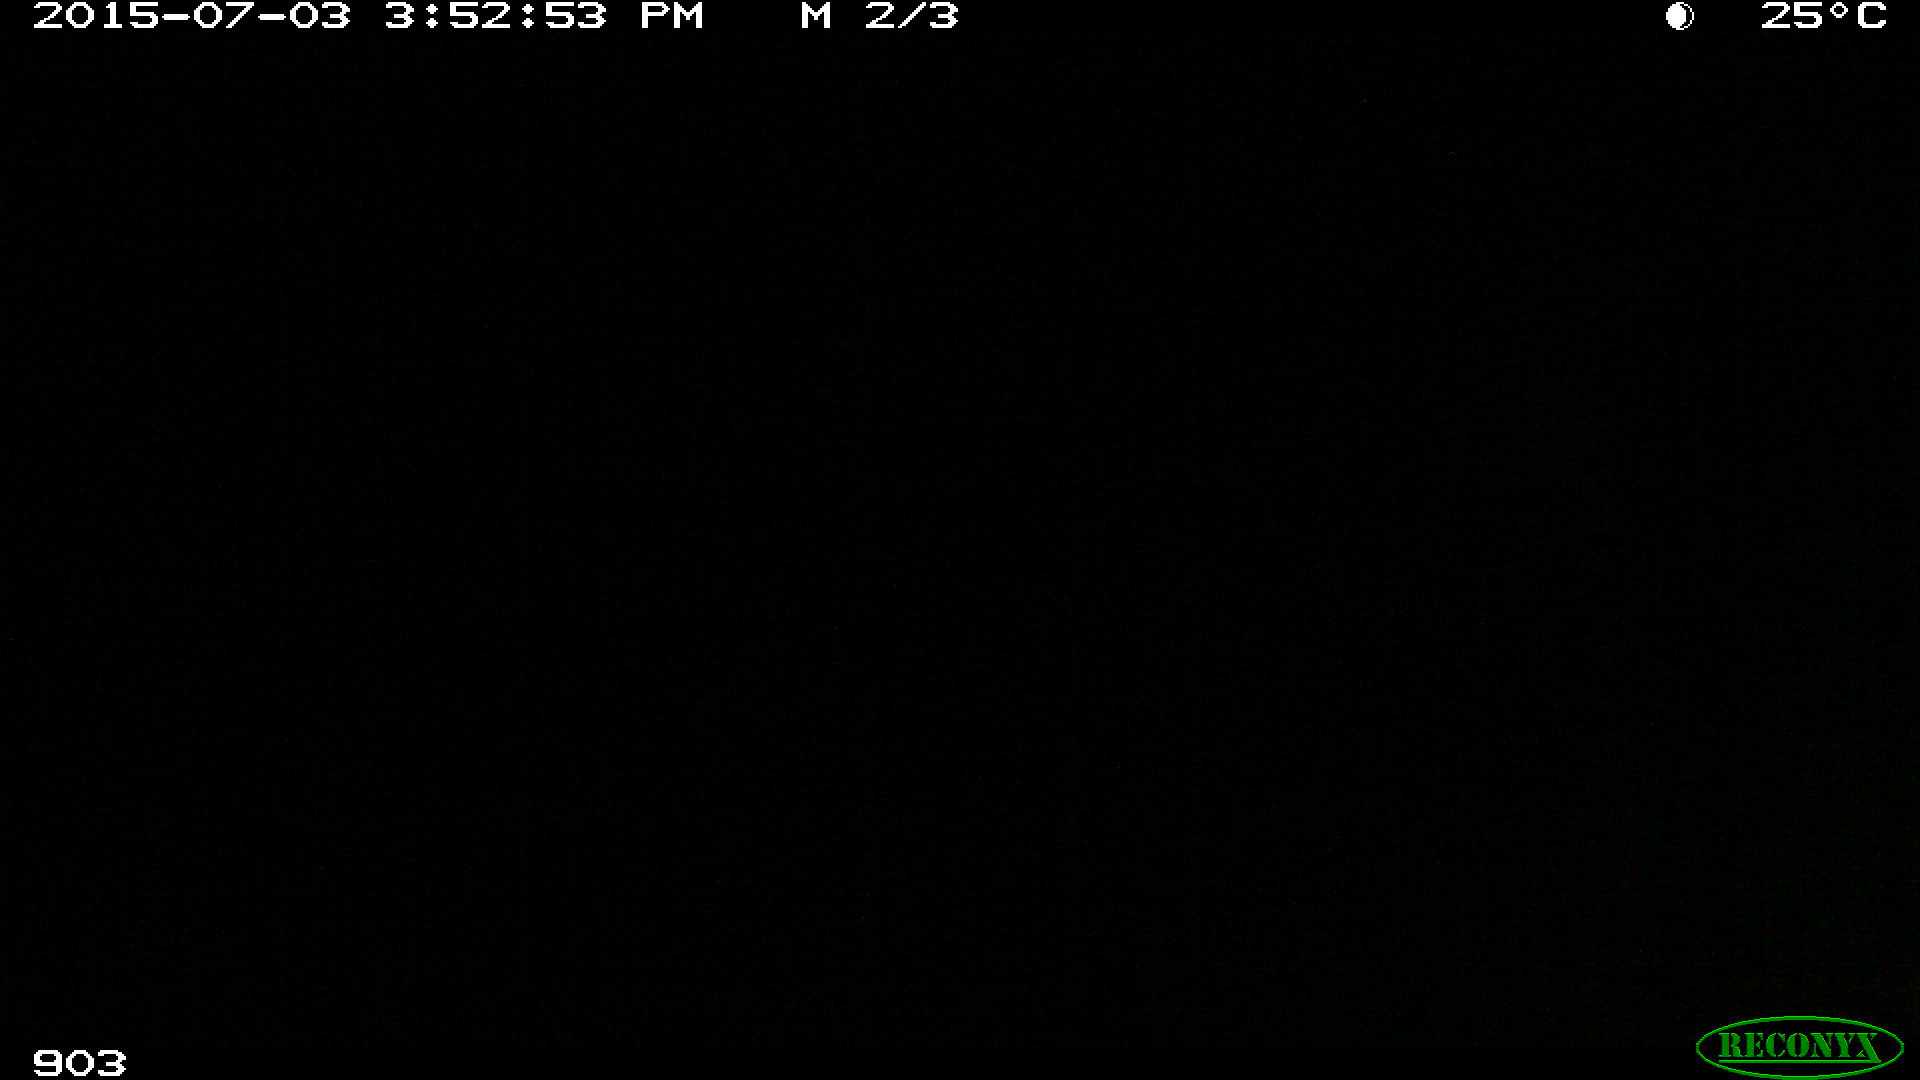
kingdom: Animalia
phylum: Chordata
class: Mammalia
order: Perissodactyla
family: Equidae
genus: Equus
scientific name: Equus caballus
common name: Horse
